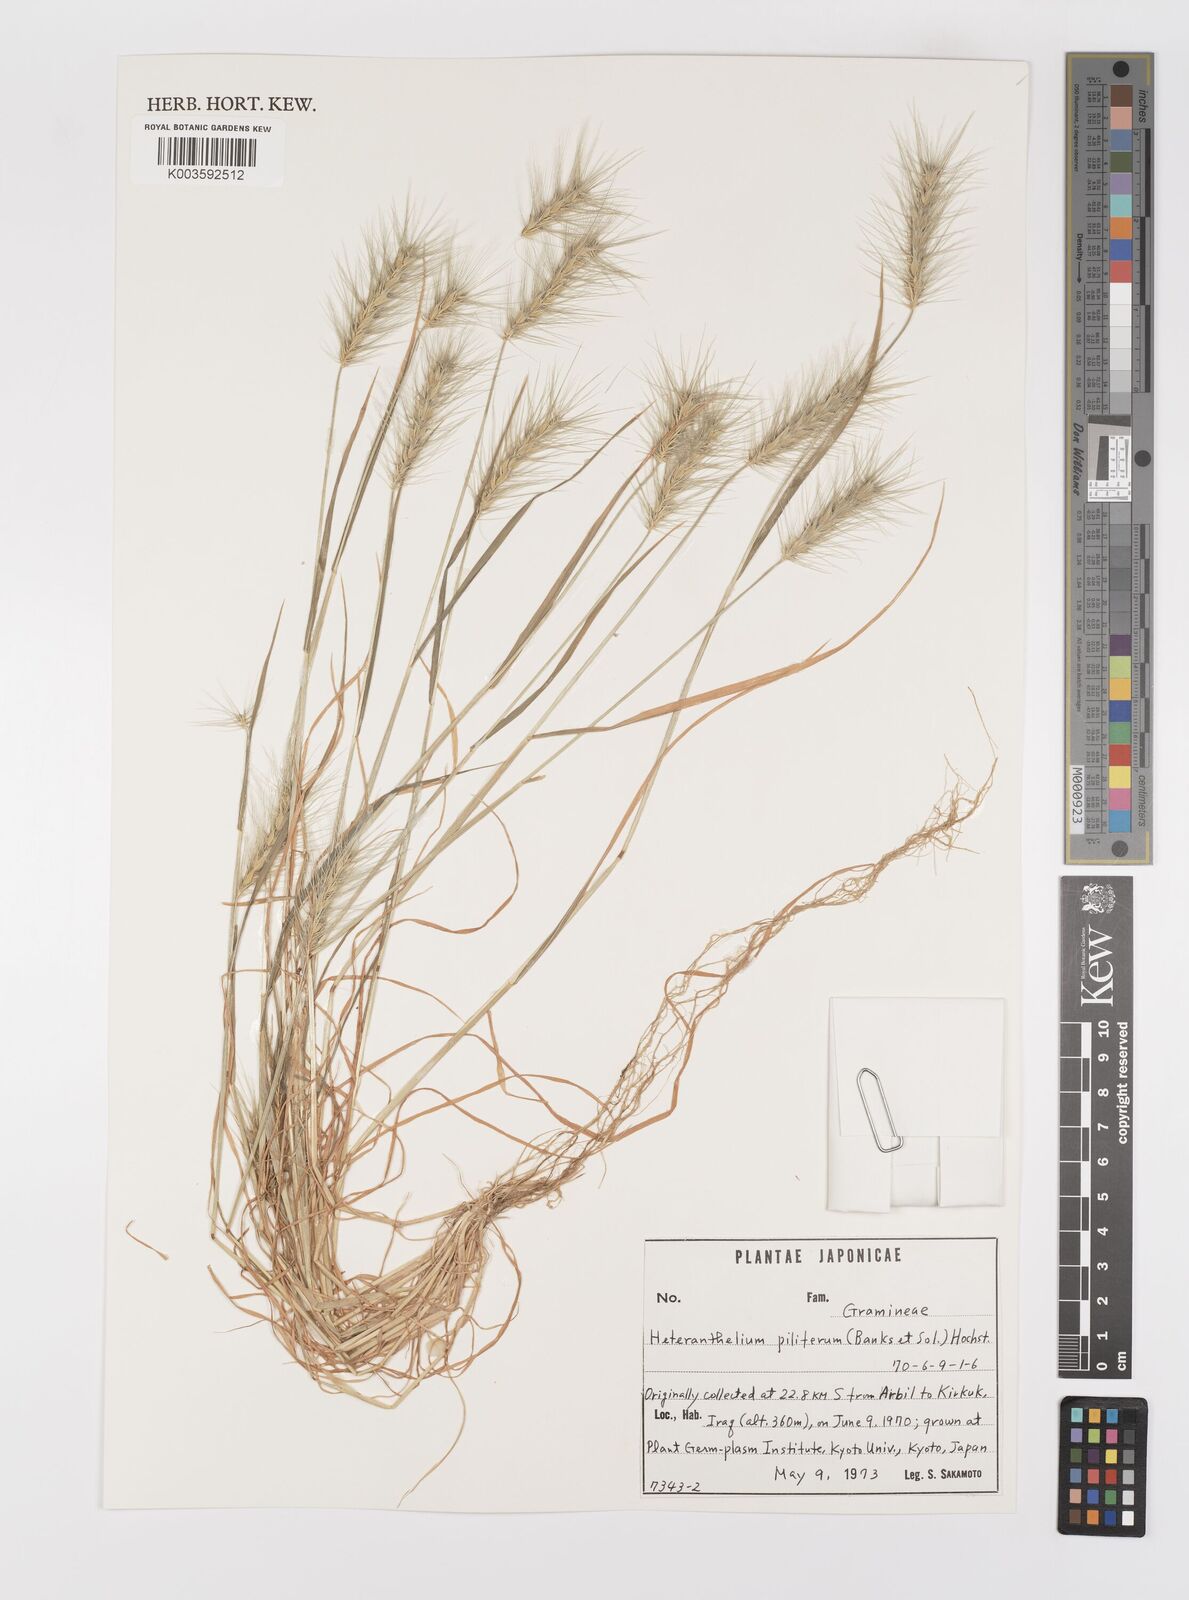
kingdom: Plantae
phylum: Tracheophyta
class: Liliopsida
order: Poales
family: Poaceae
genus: Heteranthelium
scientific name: Heteranthelium piliferum
